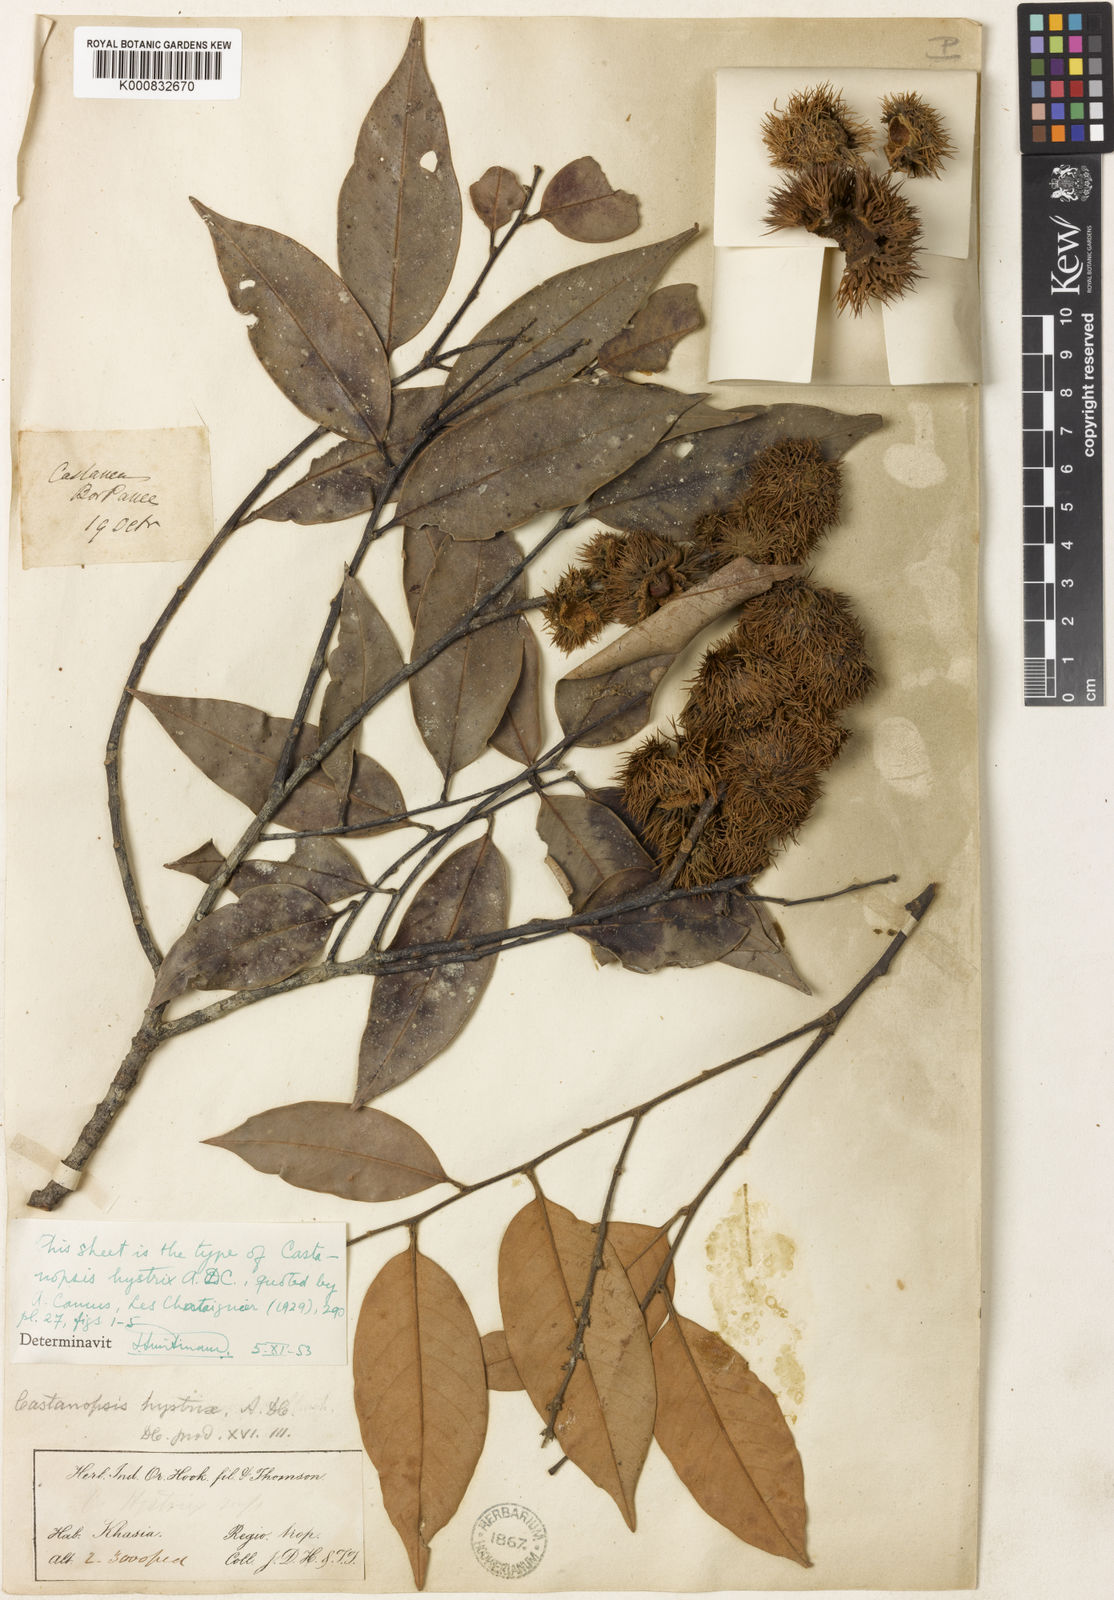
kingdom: Plantae
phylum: Tracheophyta
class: Magnoliopsida
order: Fagales
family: Fagaceae
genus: Castanopsis
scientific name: Castanopsis
